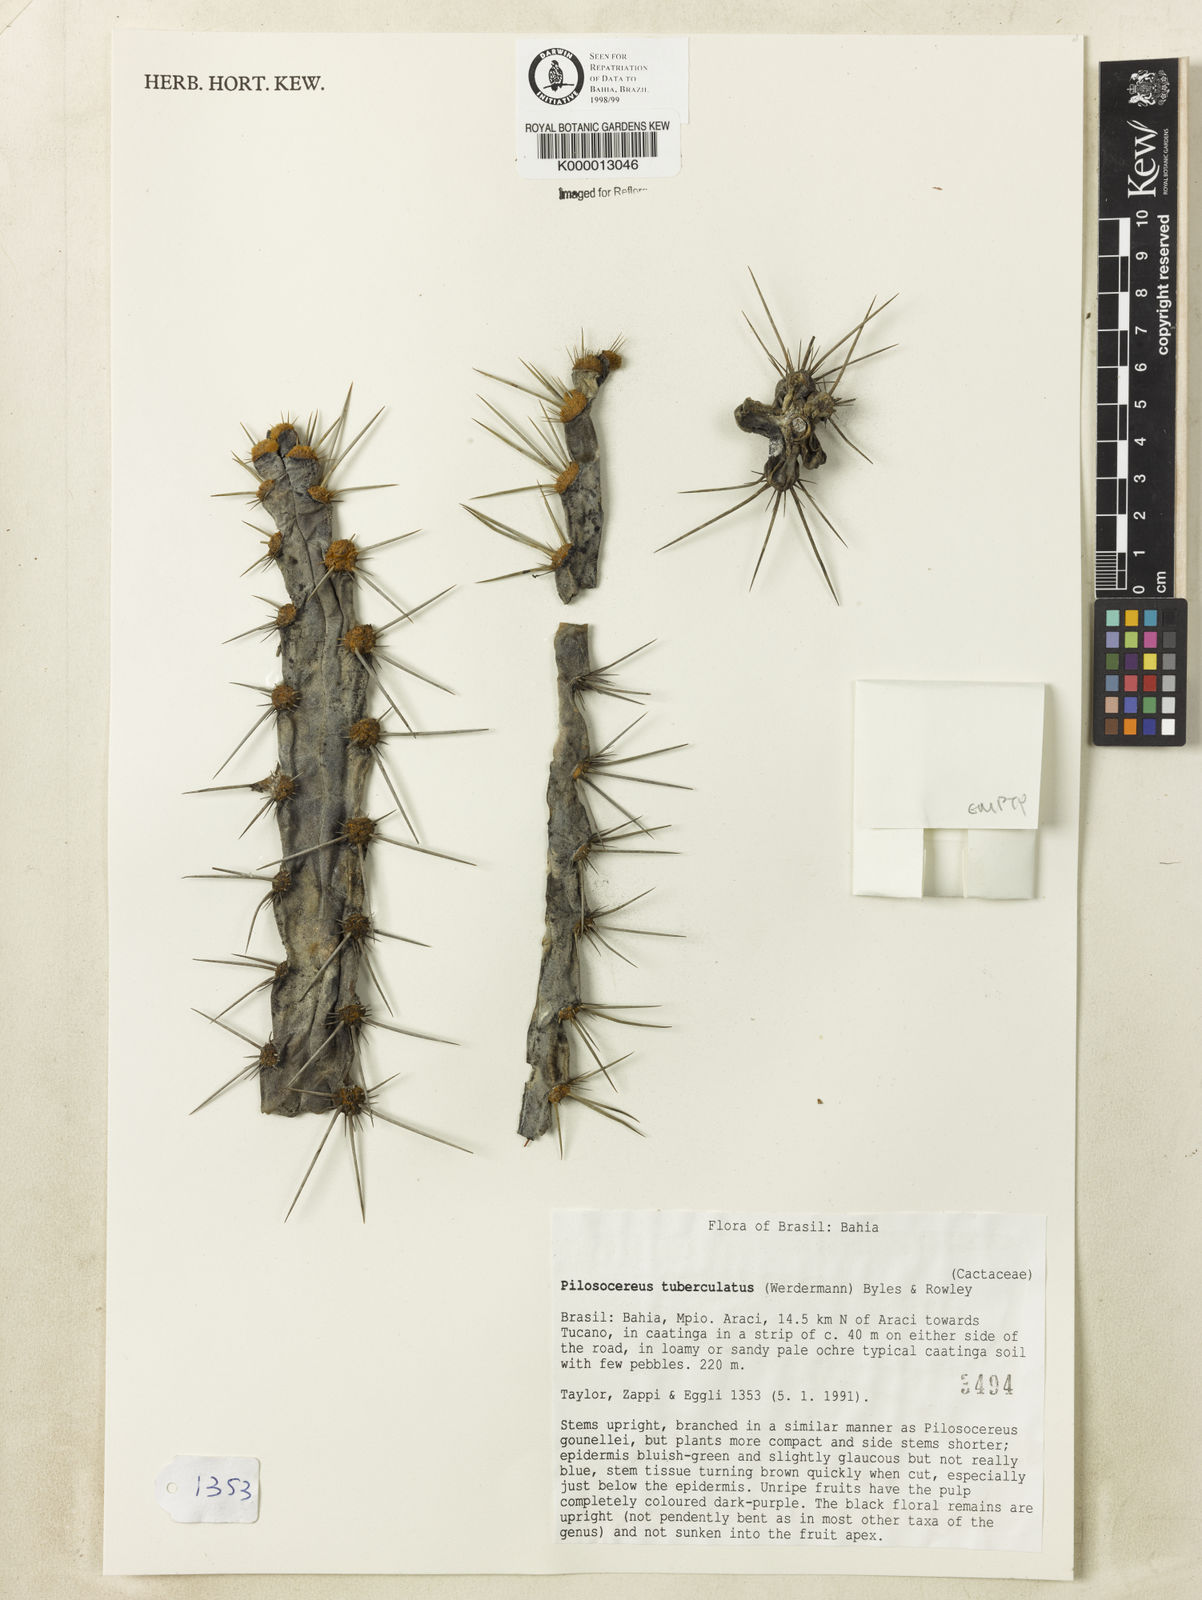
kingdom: Plantae
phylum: Tracheophyta
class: Magnoliopsida
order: Caryophyllales
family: Cactaceae
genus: Xiquexique
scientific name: Xiquexique tuberculatus
